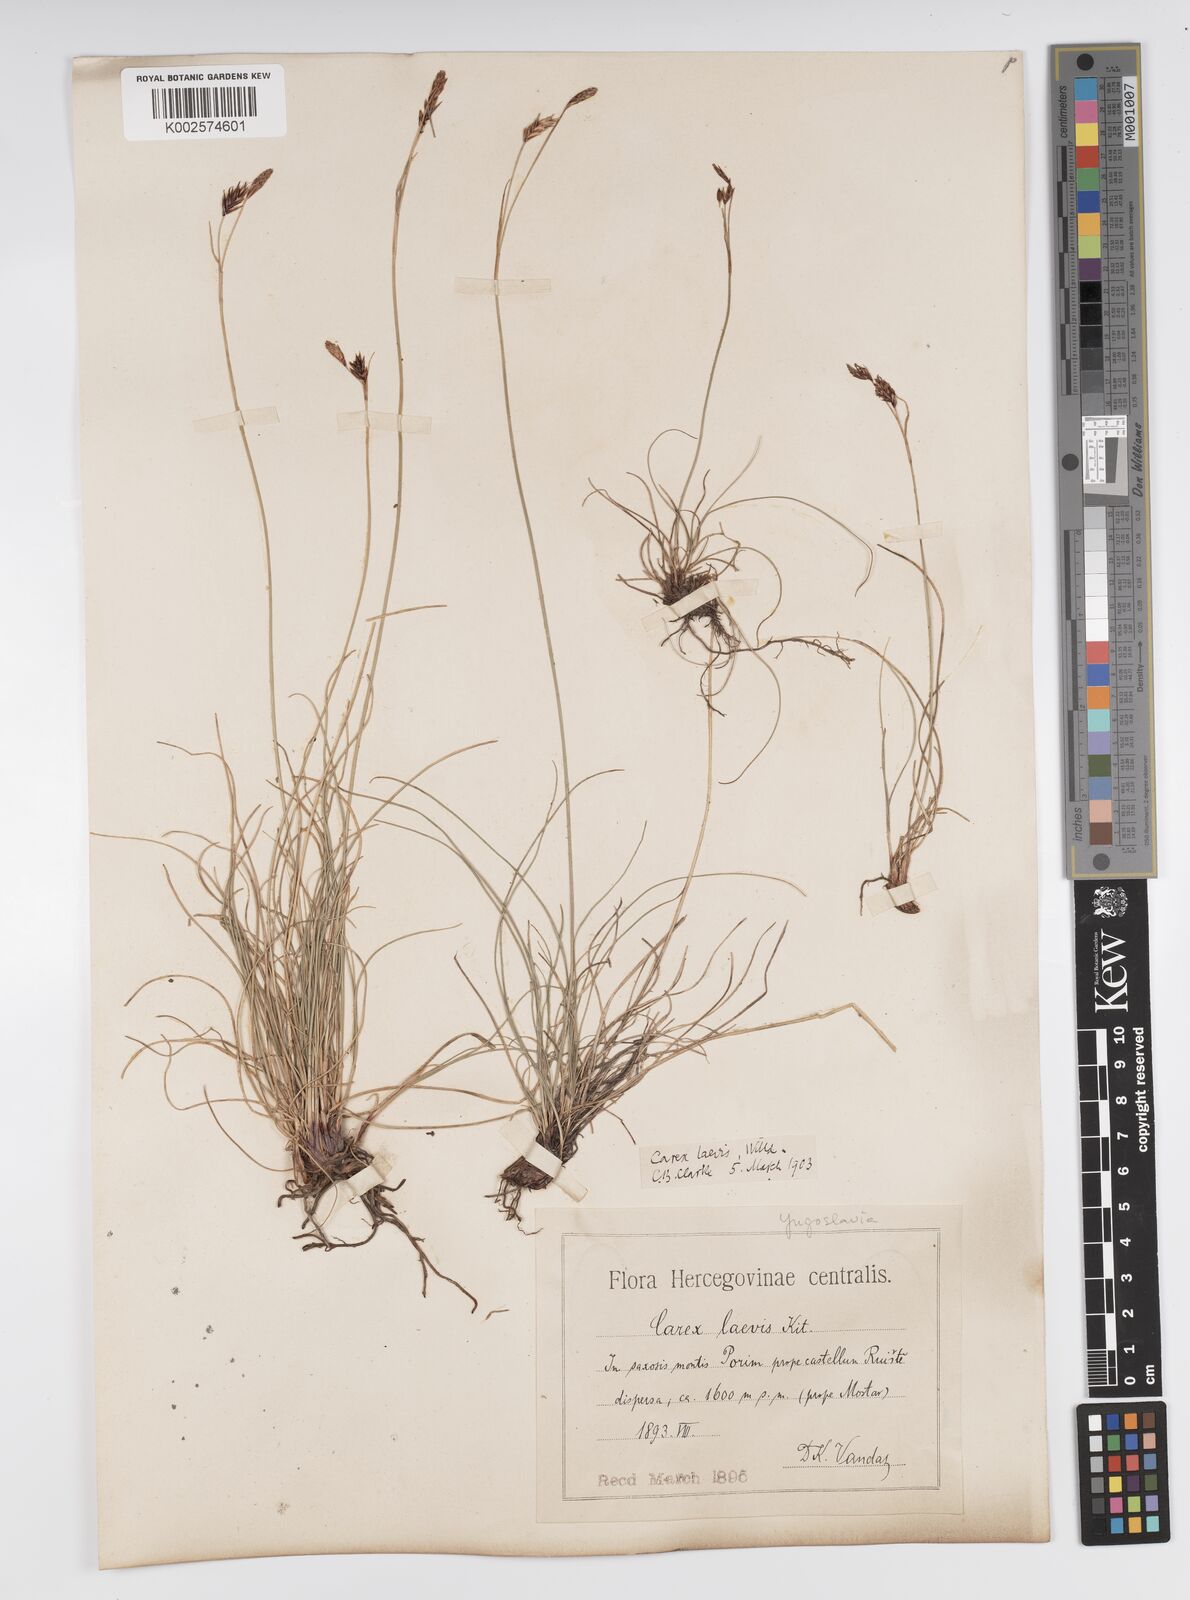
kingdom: Plantae
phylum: Tracheophyta
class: Liliopsida
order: Poales
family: Cyperaceae
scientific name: Cyperaceae
